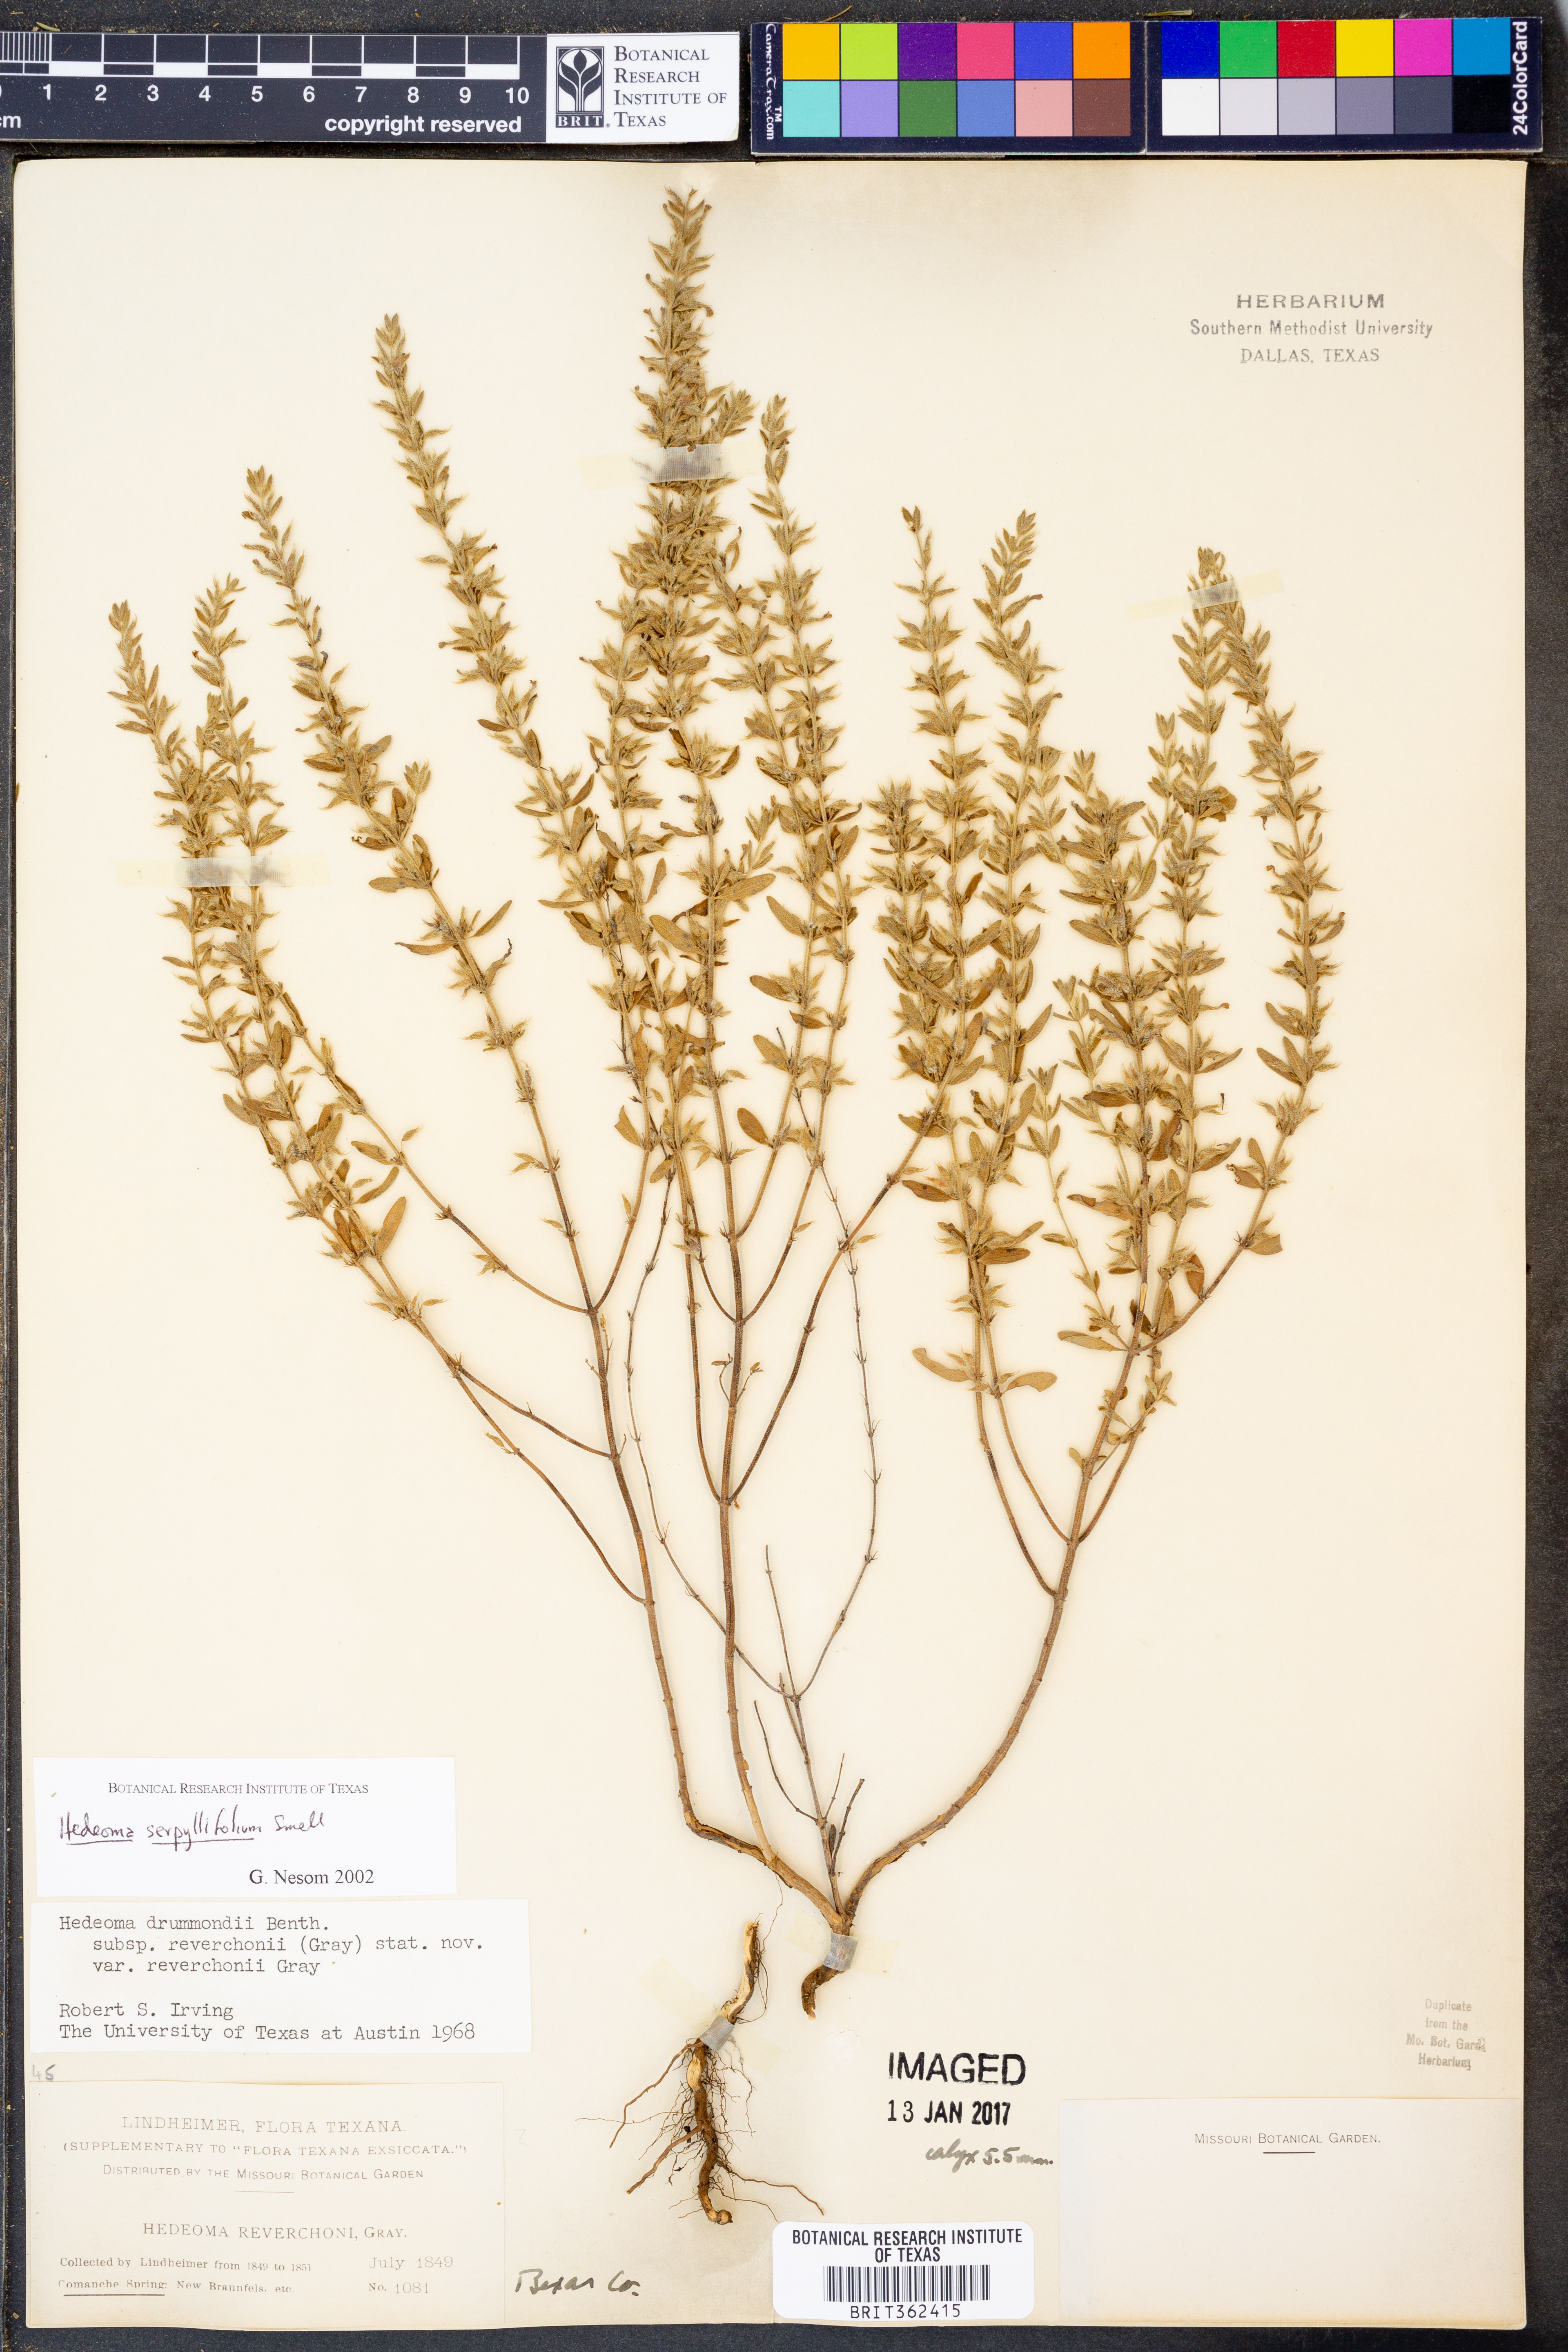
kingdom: Plantae
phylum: Tracheophyta
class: Magnoliopsida
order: Lamiales
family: Lamiaceae
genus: Hedeoma
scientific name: Hedeoma serpyllifolia
